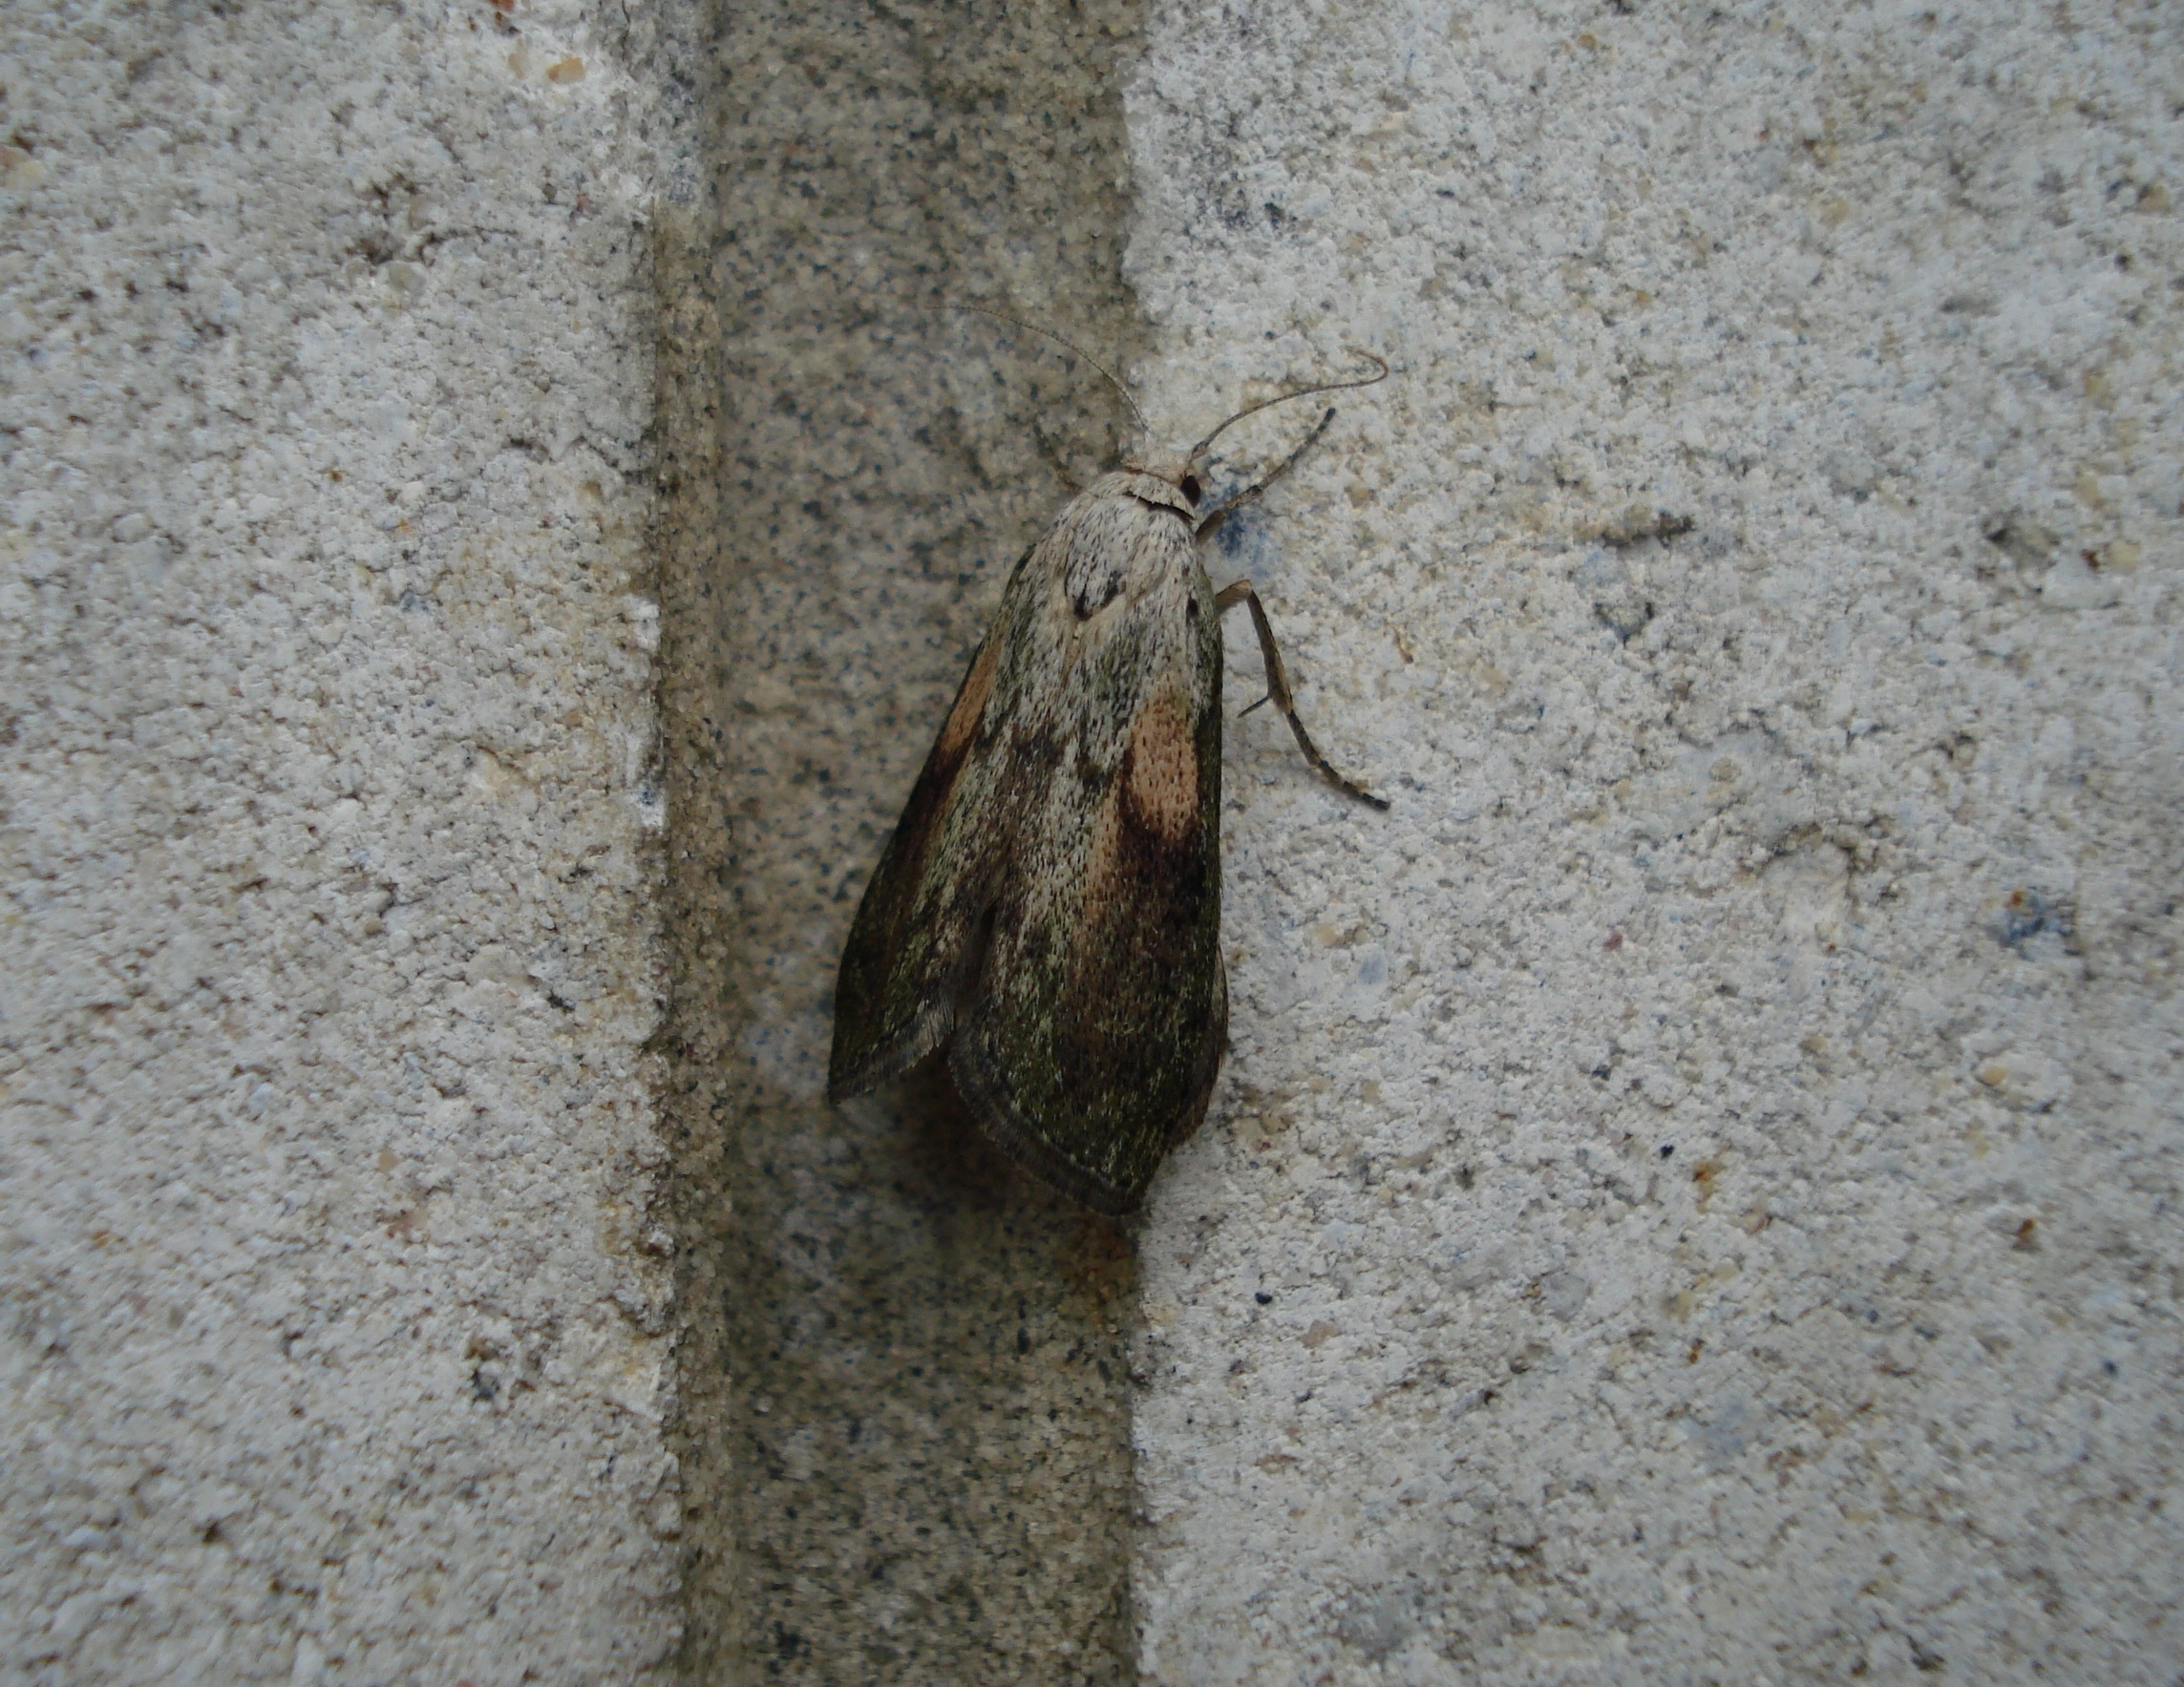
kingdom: Animalia
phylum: Arthropoda
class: Insecta
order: Lepidoptera
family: Pyralidae
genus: Aphomia
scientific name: Aphomia sociella
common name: Humlevoksmøl
